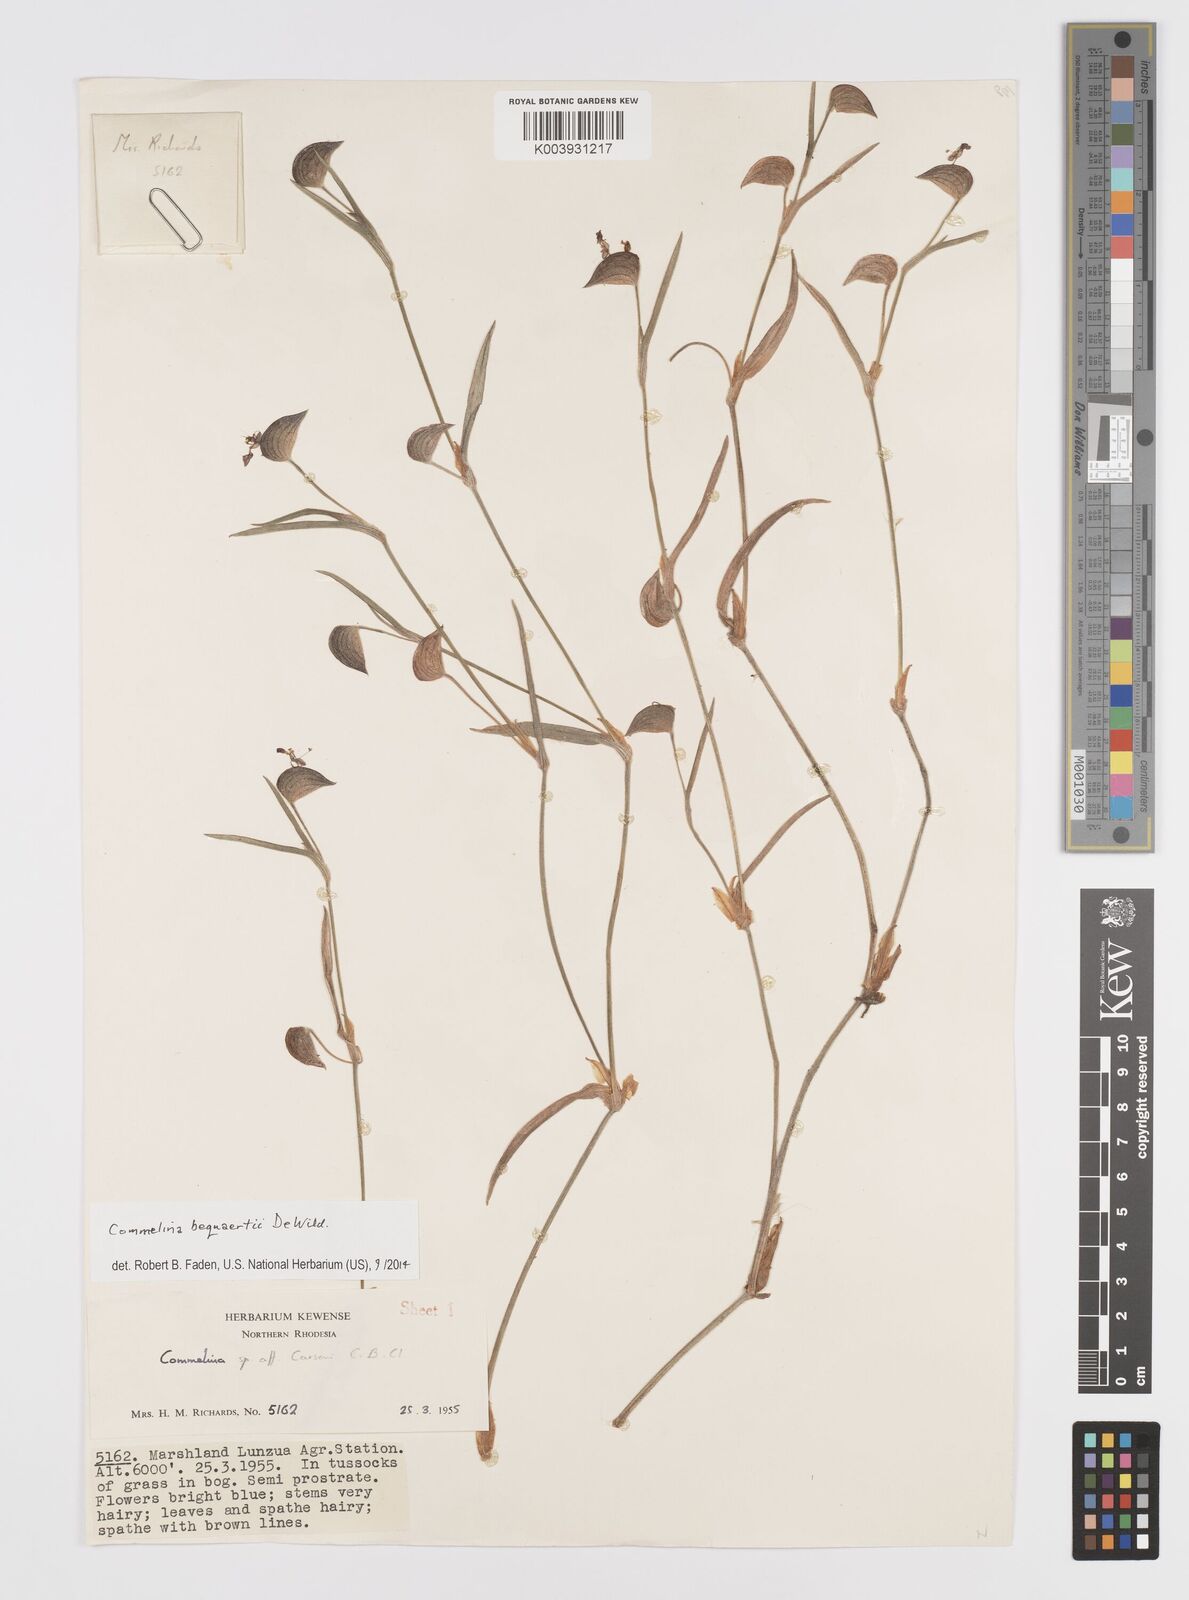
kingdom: Plantae
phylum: Tracheophyta
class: Liliopsida
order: Commelinales
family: Commelinaceae
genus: Commelina
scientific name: Commelina bequaertii
